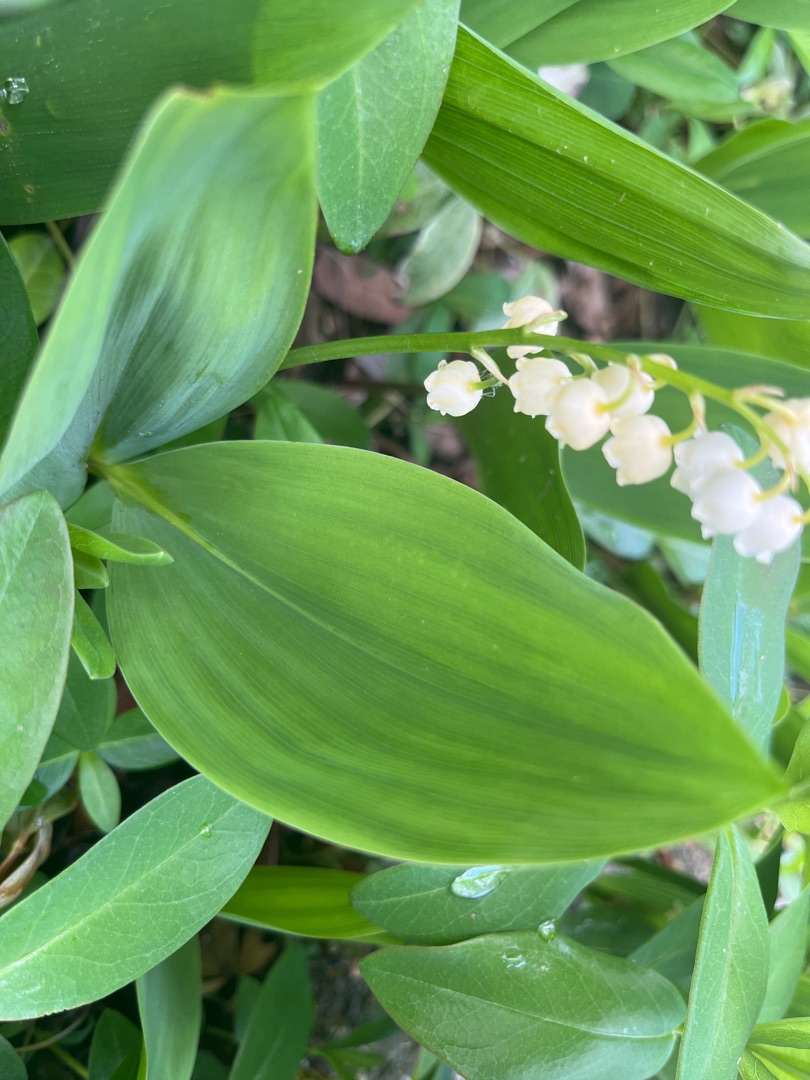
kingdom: Plantae
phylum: Tracheophyta
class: Liliopsida
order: Asparagales
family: Asparagaceae
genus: Convallaria
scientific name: Convallaria majalis
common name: Liljekonval
